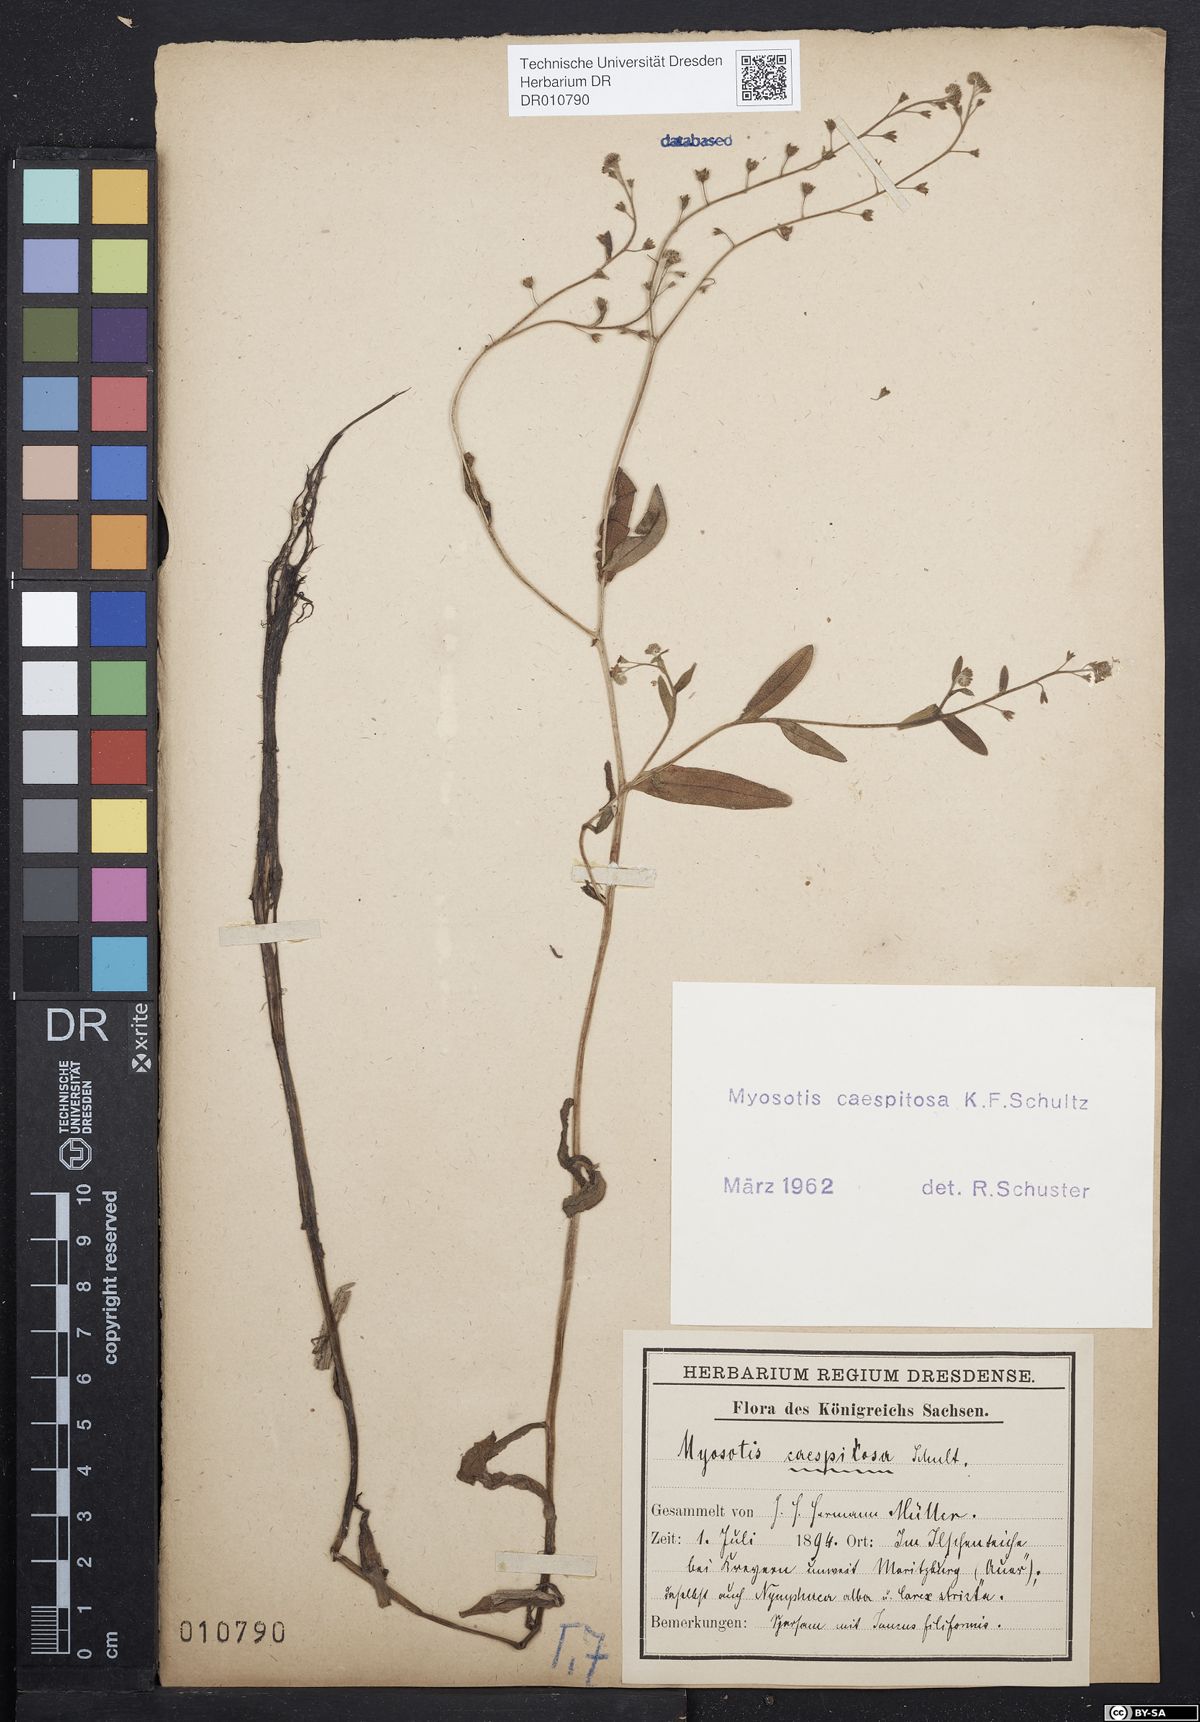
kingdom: Plantae
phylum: Tracheophyta
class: Magnoliopsida
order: Boraginales
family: Boraginaceae
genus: Myosotis
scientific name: Myosotis laxa
